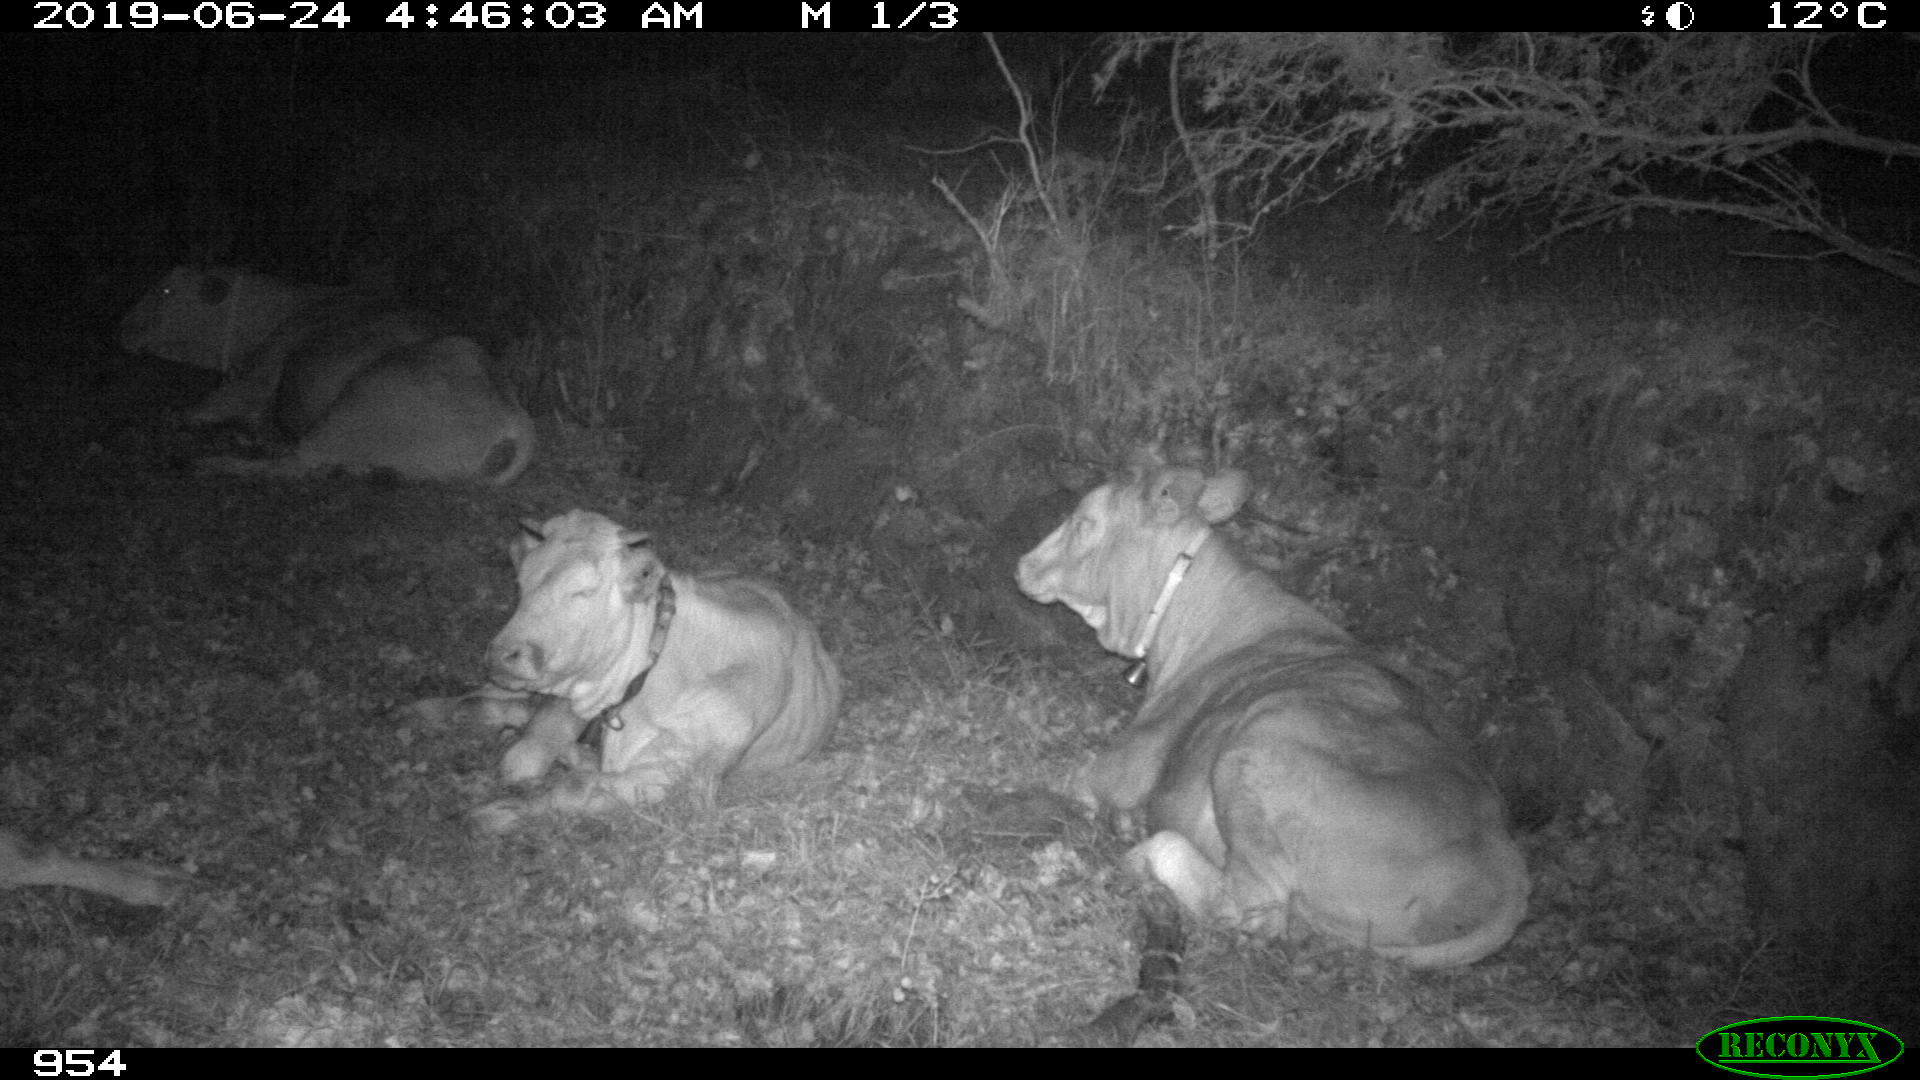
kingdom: Animalia
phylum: Chordata
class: Mammalia
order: Artiodactyla
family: Bovidae
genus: Bos
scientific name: Bos taurus
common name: Domesticated cattle
